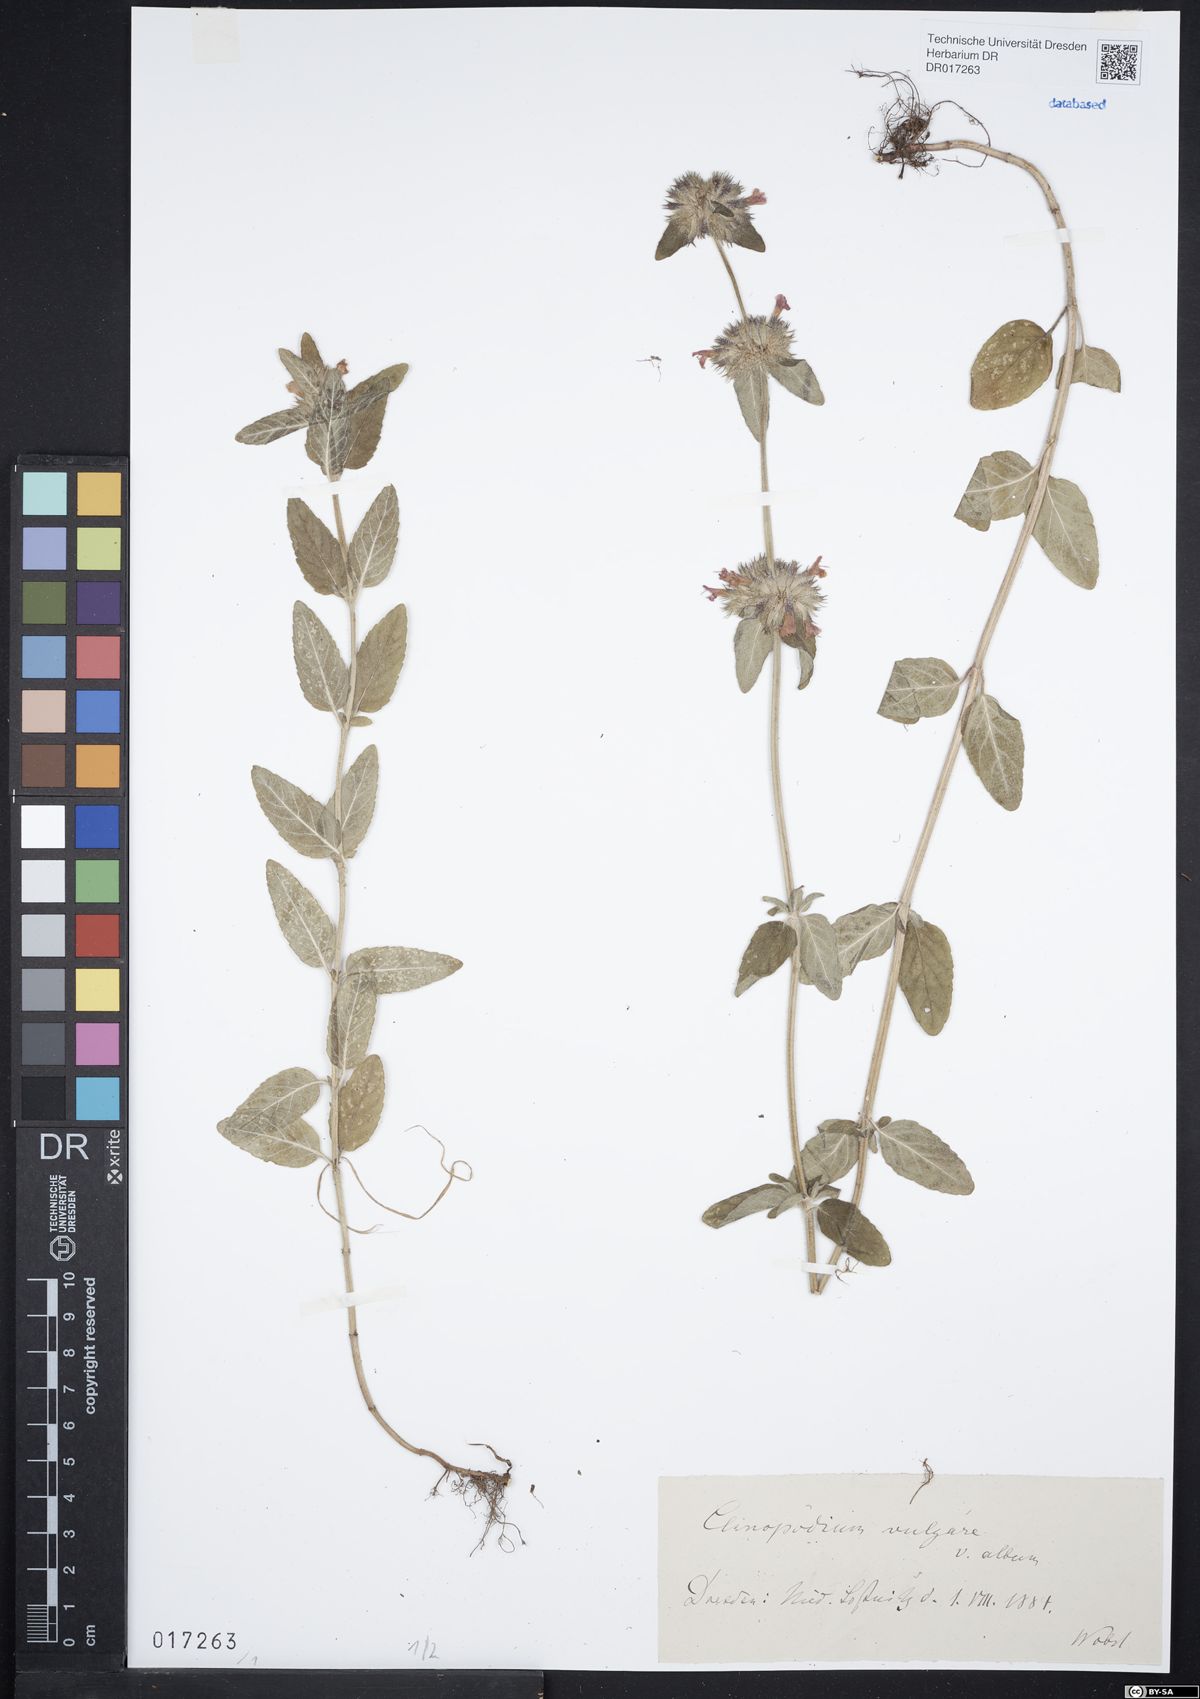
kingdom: Plantae
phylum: Tracheophyta
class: Magnoliopsida
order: Lamiales
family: Lamiaceae
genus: Clinopodium
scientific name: Clinopodium vulgare
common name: Wild basil
